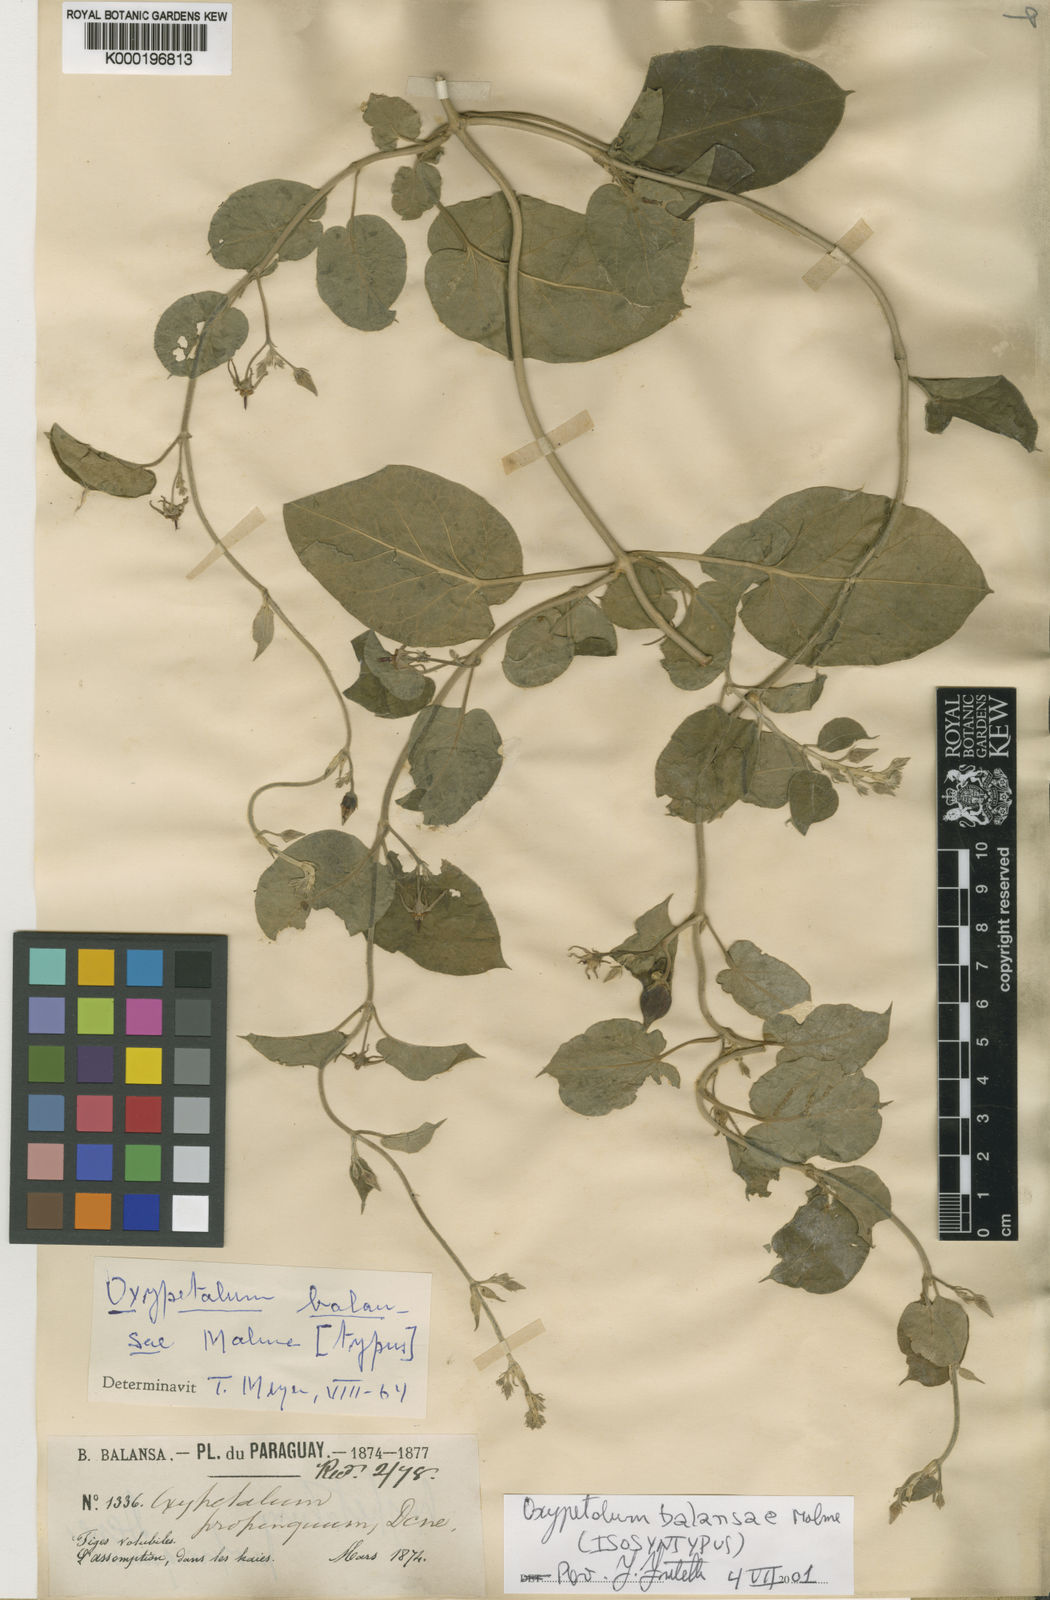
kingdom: Plantae
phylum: Tracheophyta
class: Magnoliopsida
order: Gentianales
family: Apocynaceae
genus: Oxypetalum
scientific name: Oxypetalum balansae
